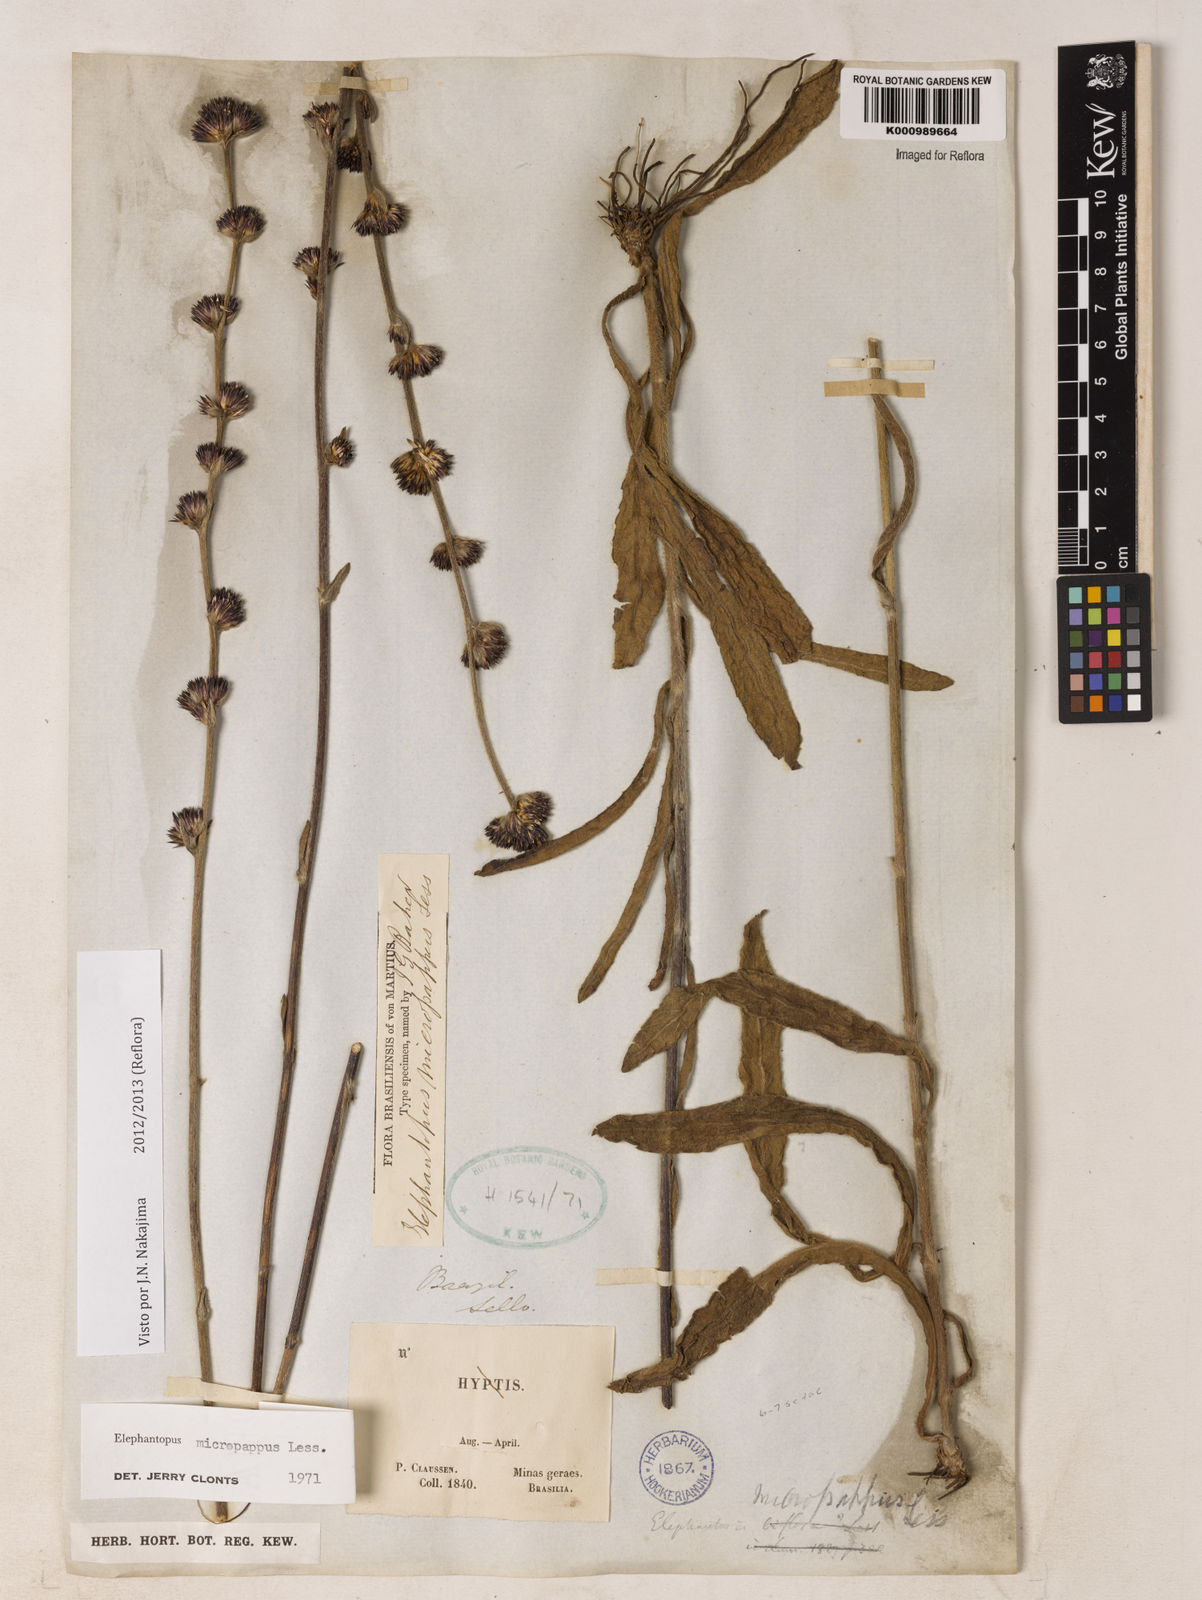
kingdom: Plantae
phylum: Tracheophyta
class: Magnoliopsida
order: Asterales
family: Asteraceae
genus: Elephantopus
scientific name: Elephantopus micropappus
